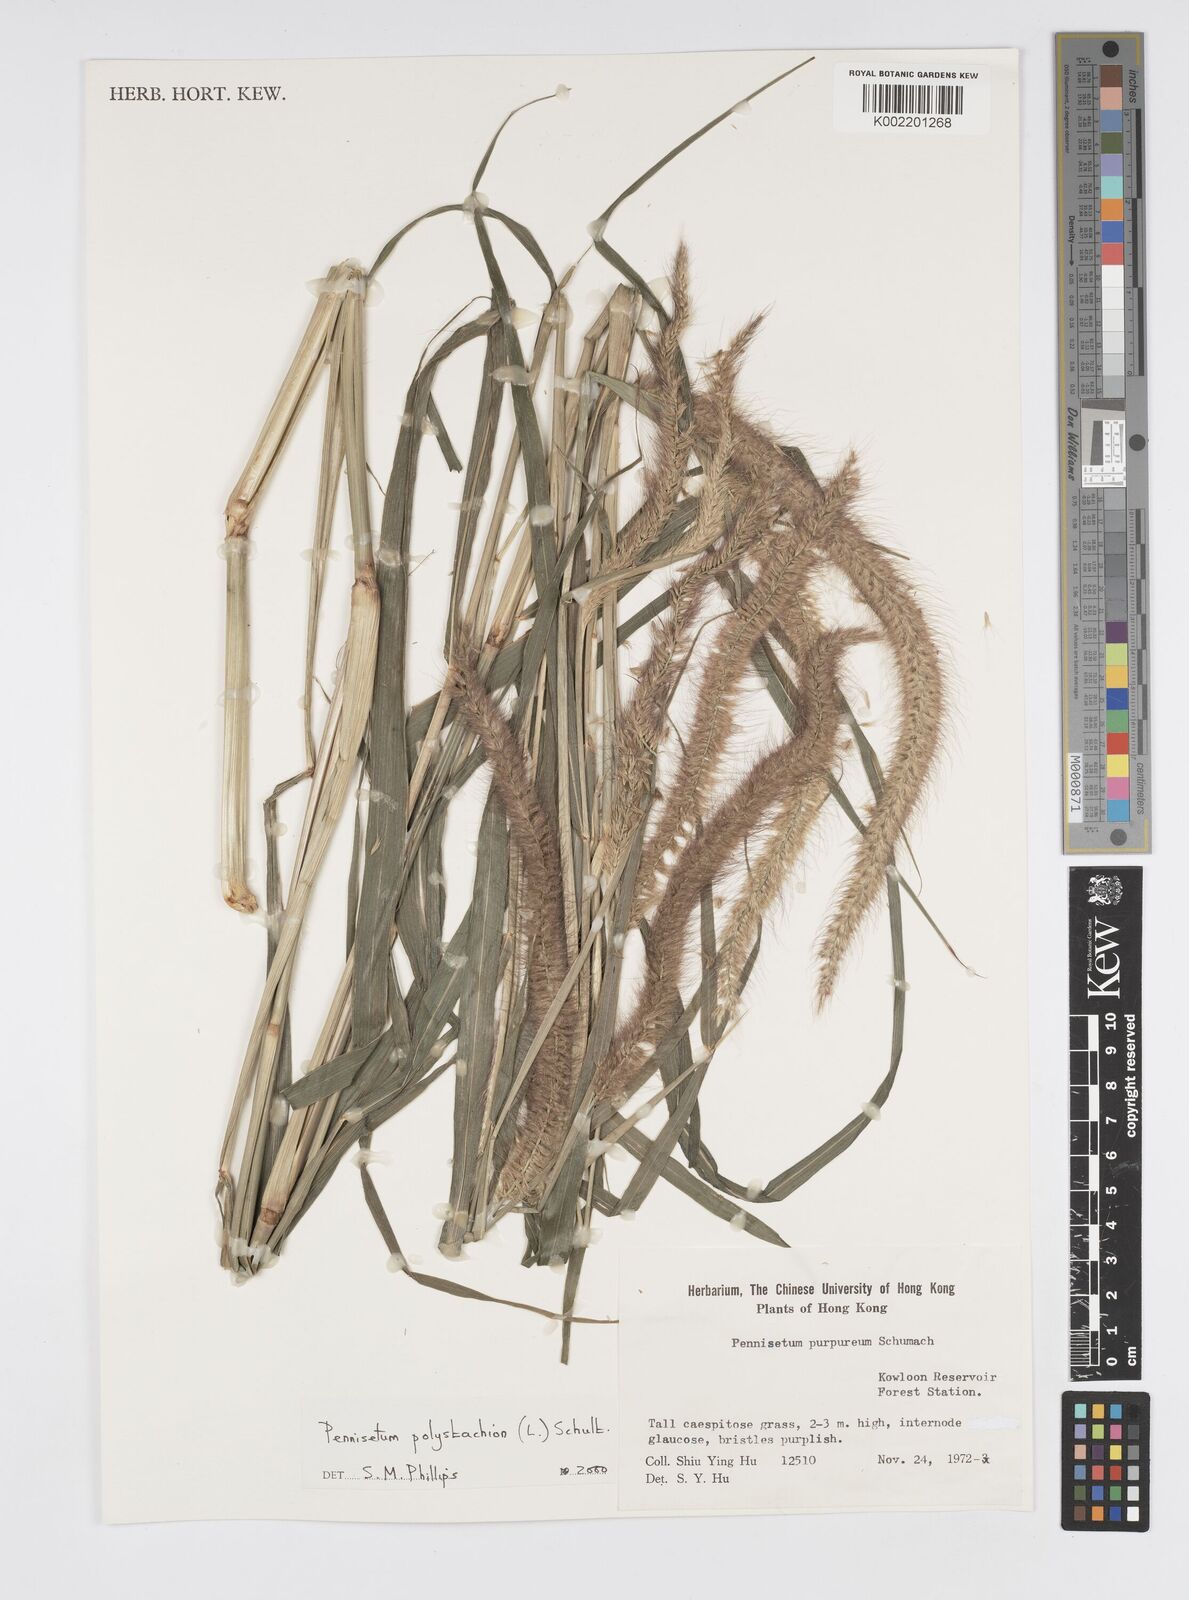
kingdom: Plantae
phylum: Tracheophyta
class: Liliopsida
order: Poales
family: Poaceae
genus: Setaria
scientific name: Setaria parviflora
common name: Knotroot bristle-grass
